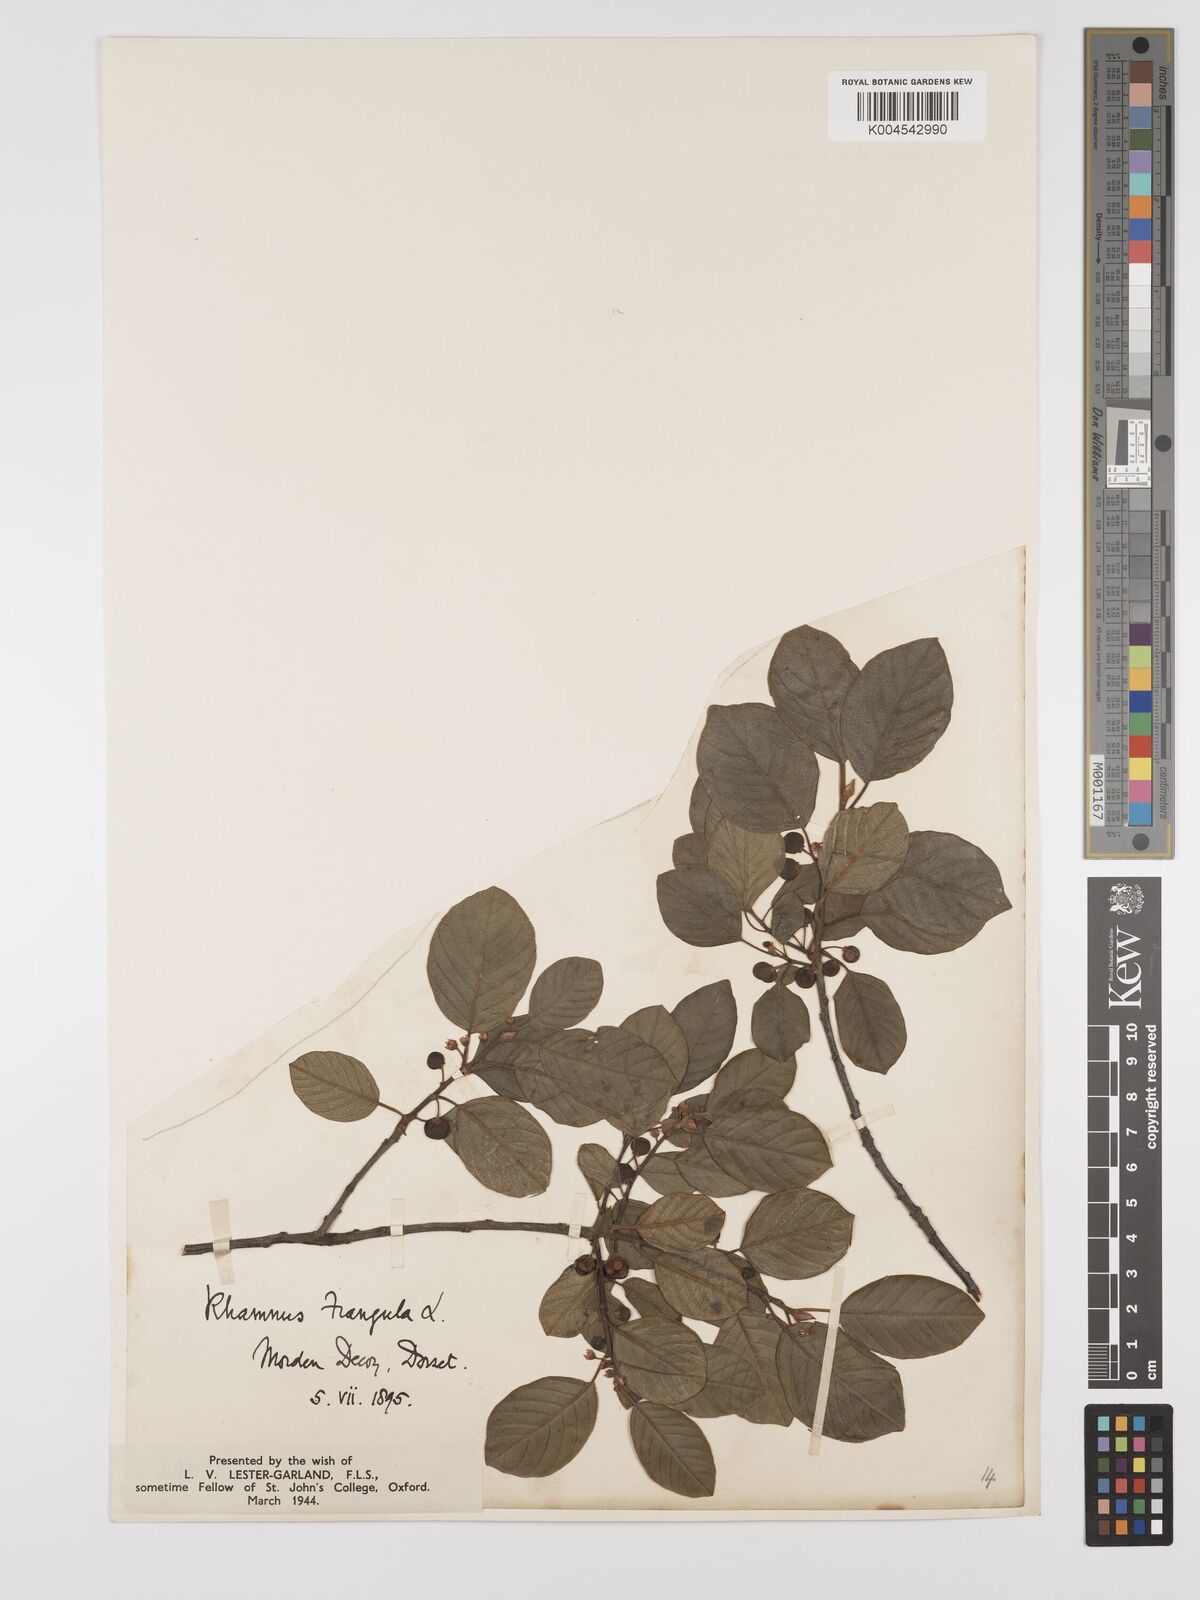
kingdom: Plantae
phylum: Tracheophyta
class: Magnoliopsida
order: Rosales
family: Rhamnaceae
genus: Frangula
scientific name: Frangula alnus
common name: Alder buckthorn
